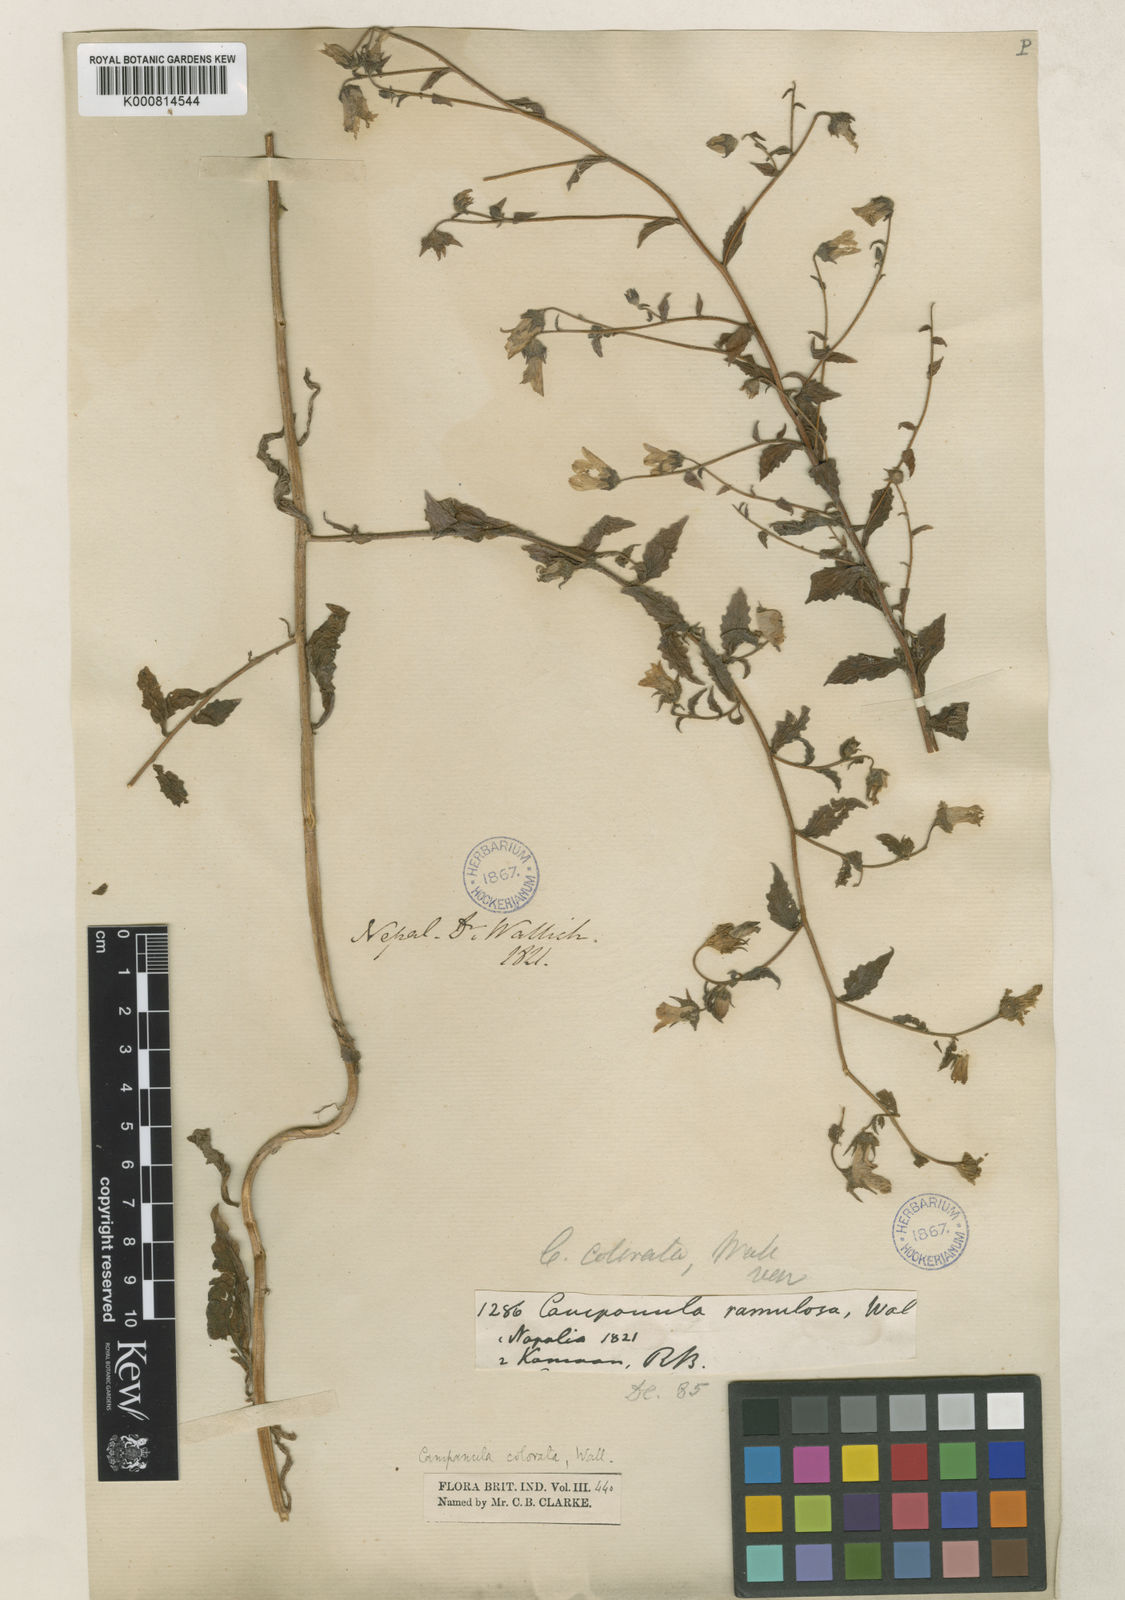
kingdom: Plantae
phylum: Tracheophyta
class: Magnoliopsida
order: Asterales
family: Campanulaceae
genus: Campanula
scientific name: Campanula pallida
